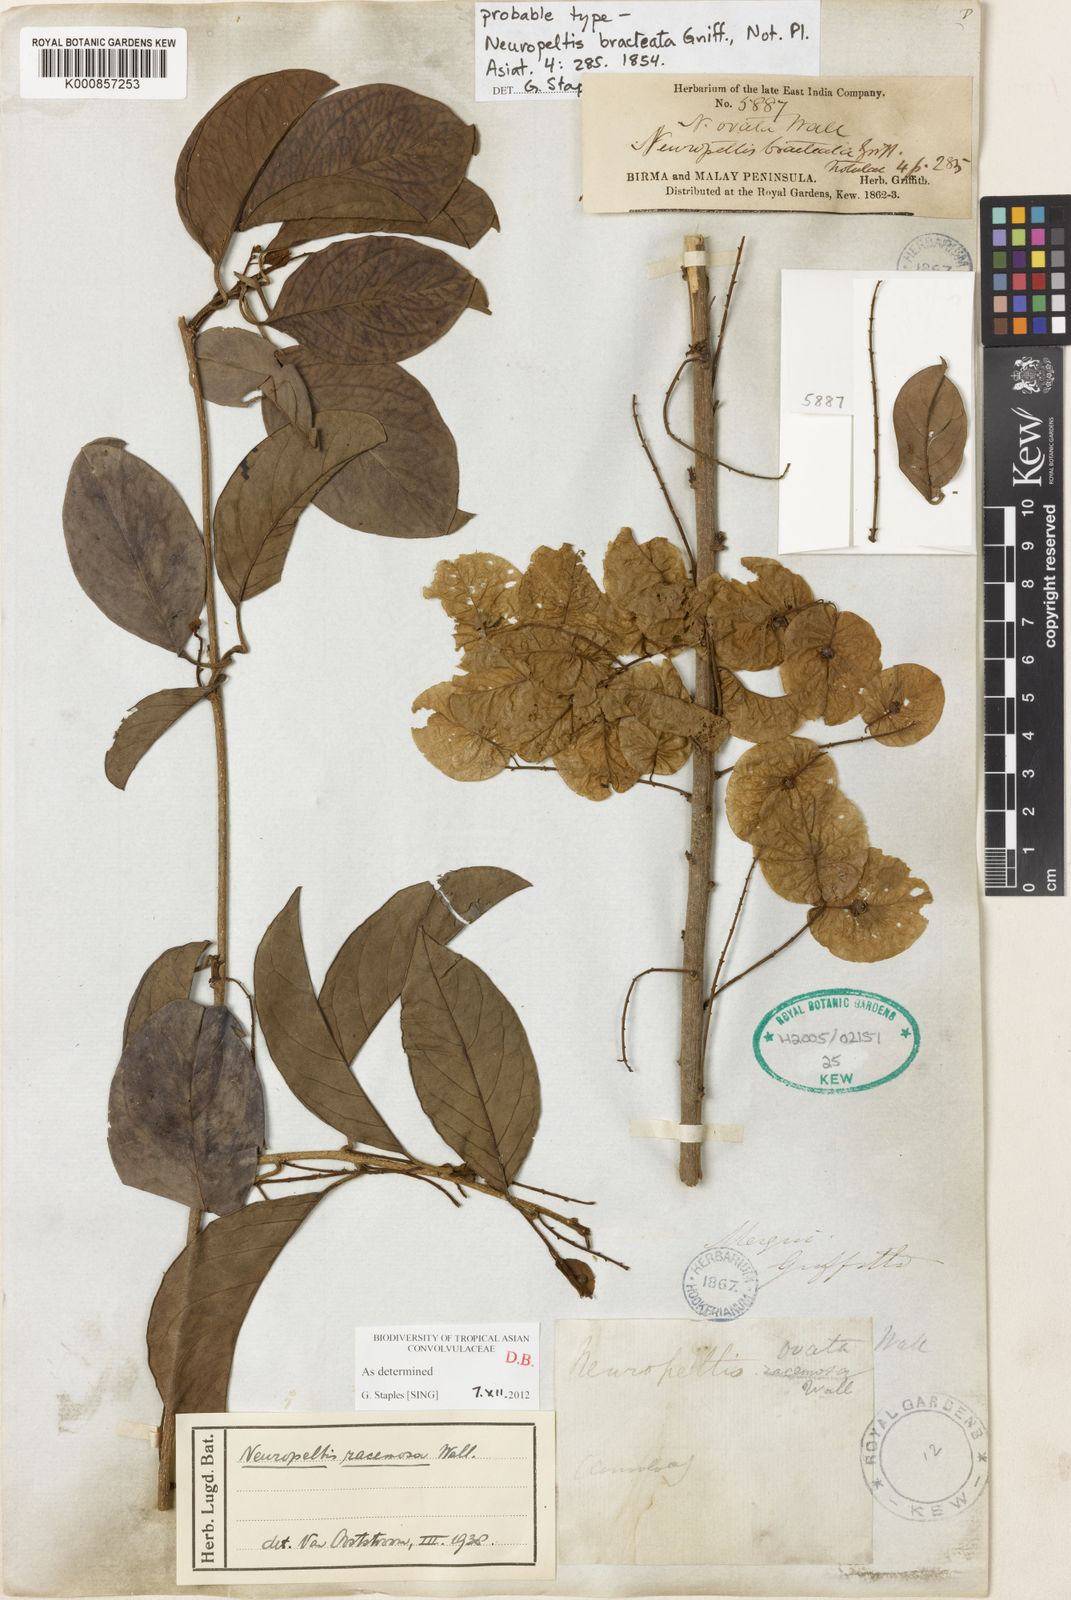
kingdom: Plantae
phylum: Tracheophyta
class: Magnoliopsida
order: Solanales
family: Convolvulaceae
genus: Neuropeltis
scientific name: Neuropeltis racemosa
